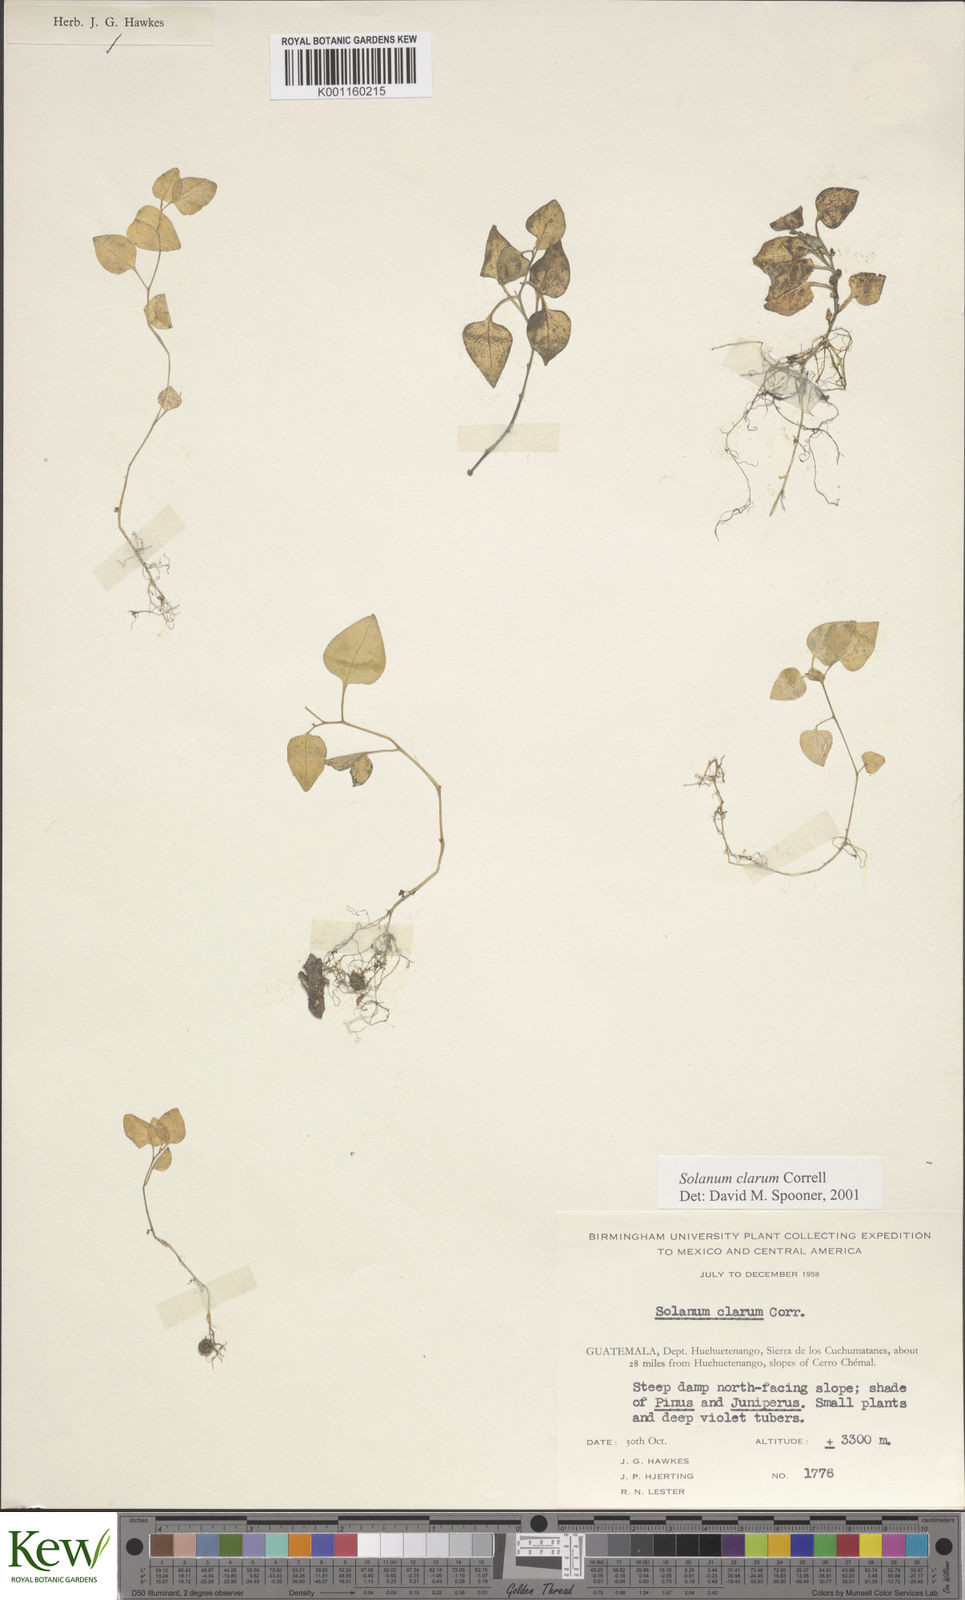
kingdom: Plantae
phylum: Tracheophyta
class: Magnoliopsida
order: Solanales
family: Solanaceae
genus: Solanum
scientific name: Solanum clarum
